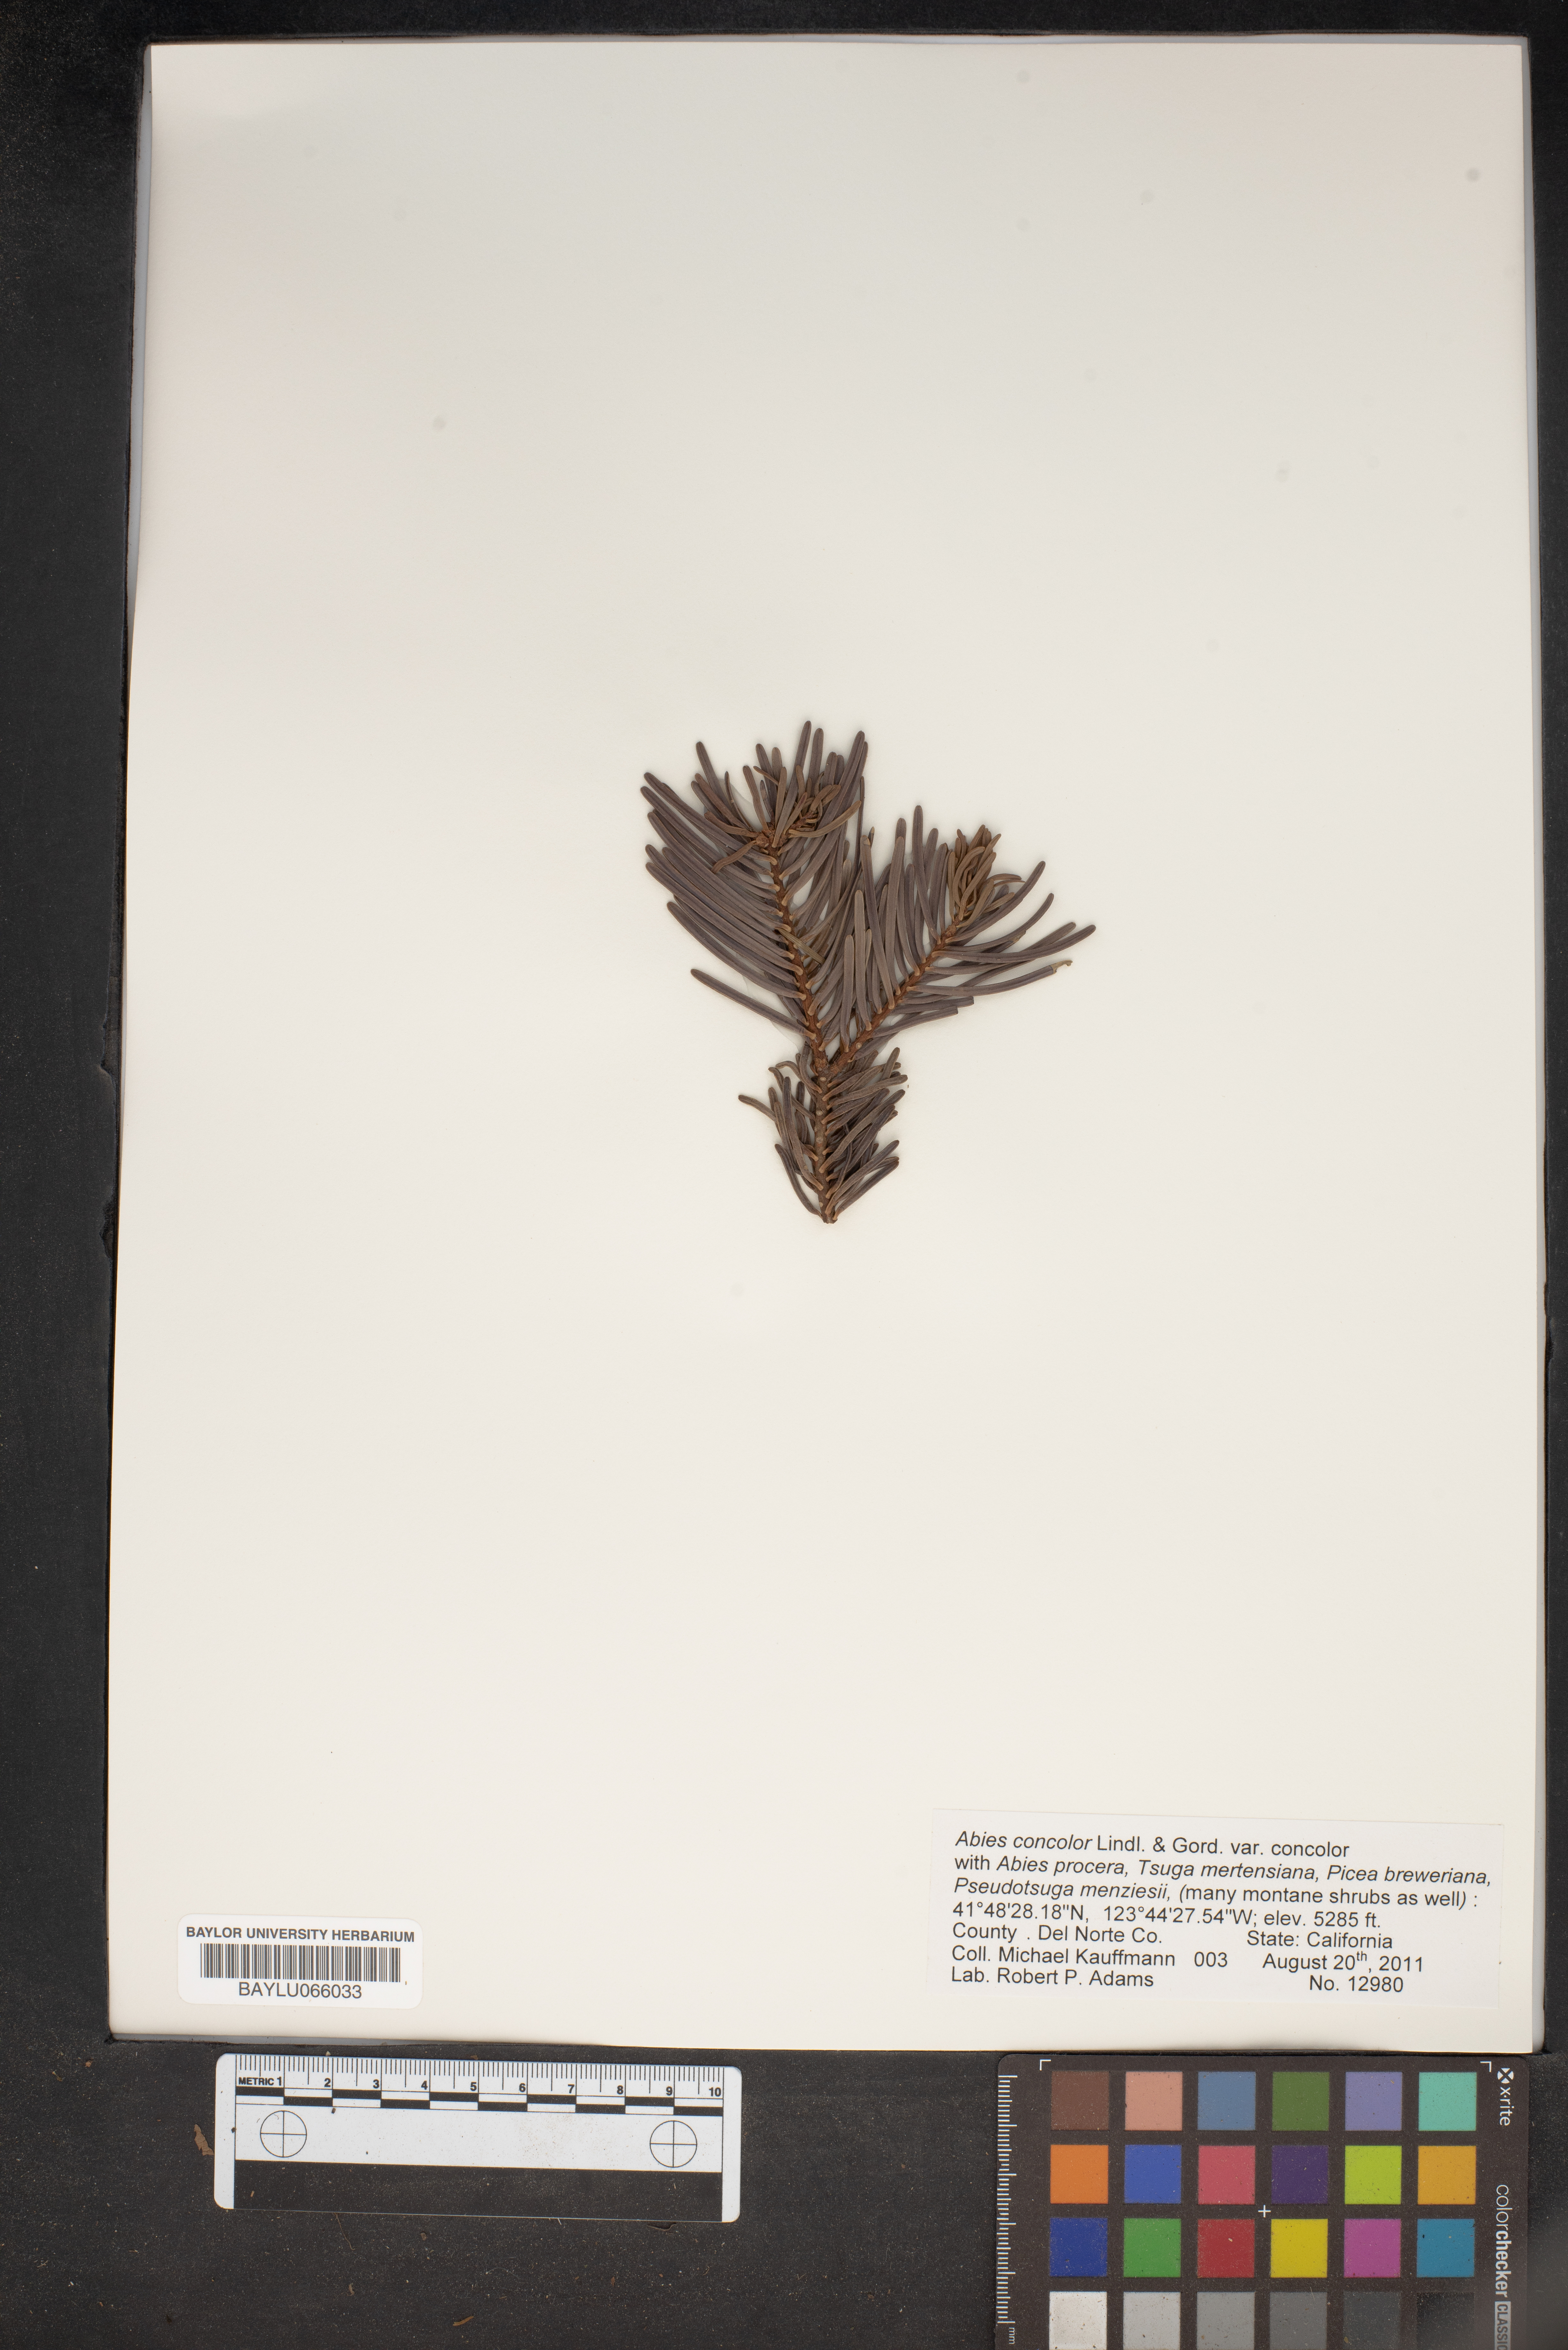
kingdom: Plantae
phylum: Tracheophyta
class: Pinopsida
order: Pinales
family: Pinaceae
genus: Abies
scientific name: Abies concolor
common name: Colorado fir
